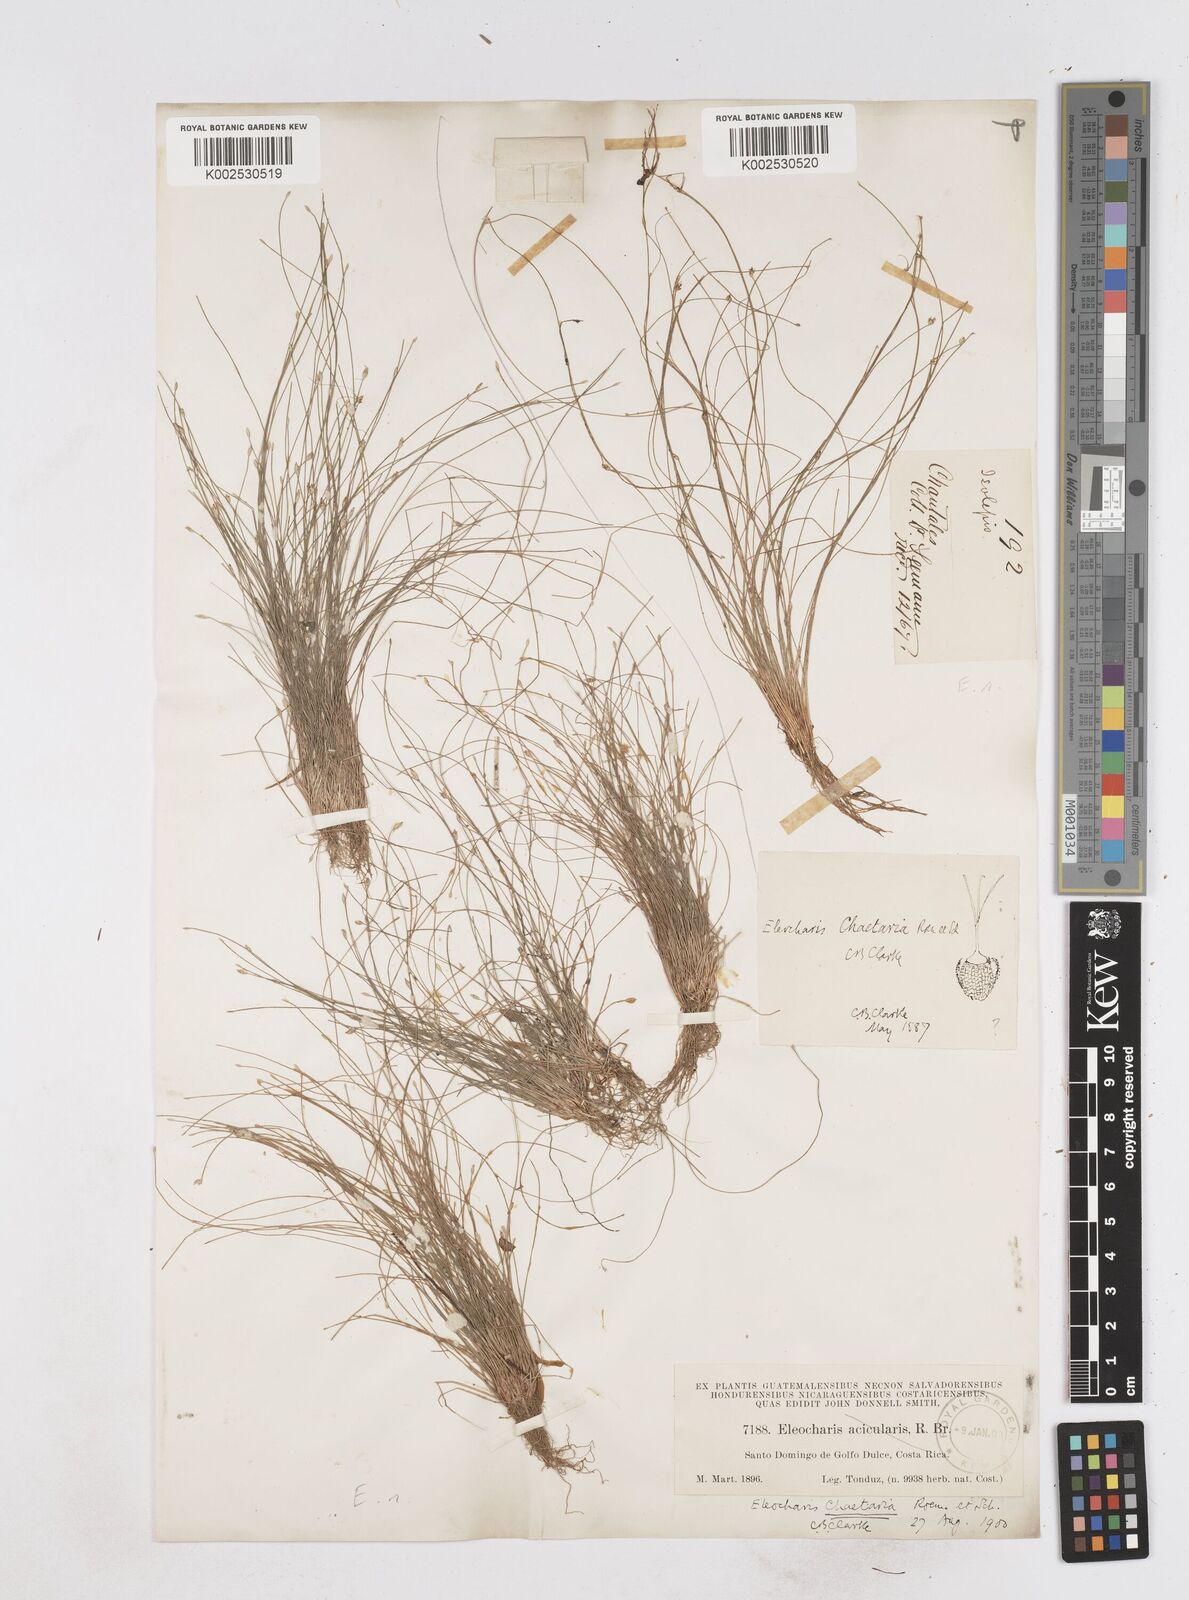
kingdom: Plantae
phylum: Tracheophyta
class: Liliopsida
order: Poales
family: Cyperaceae
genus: Eleocharis
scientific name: Eleocharis retroflexa
